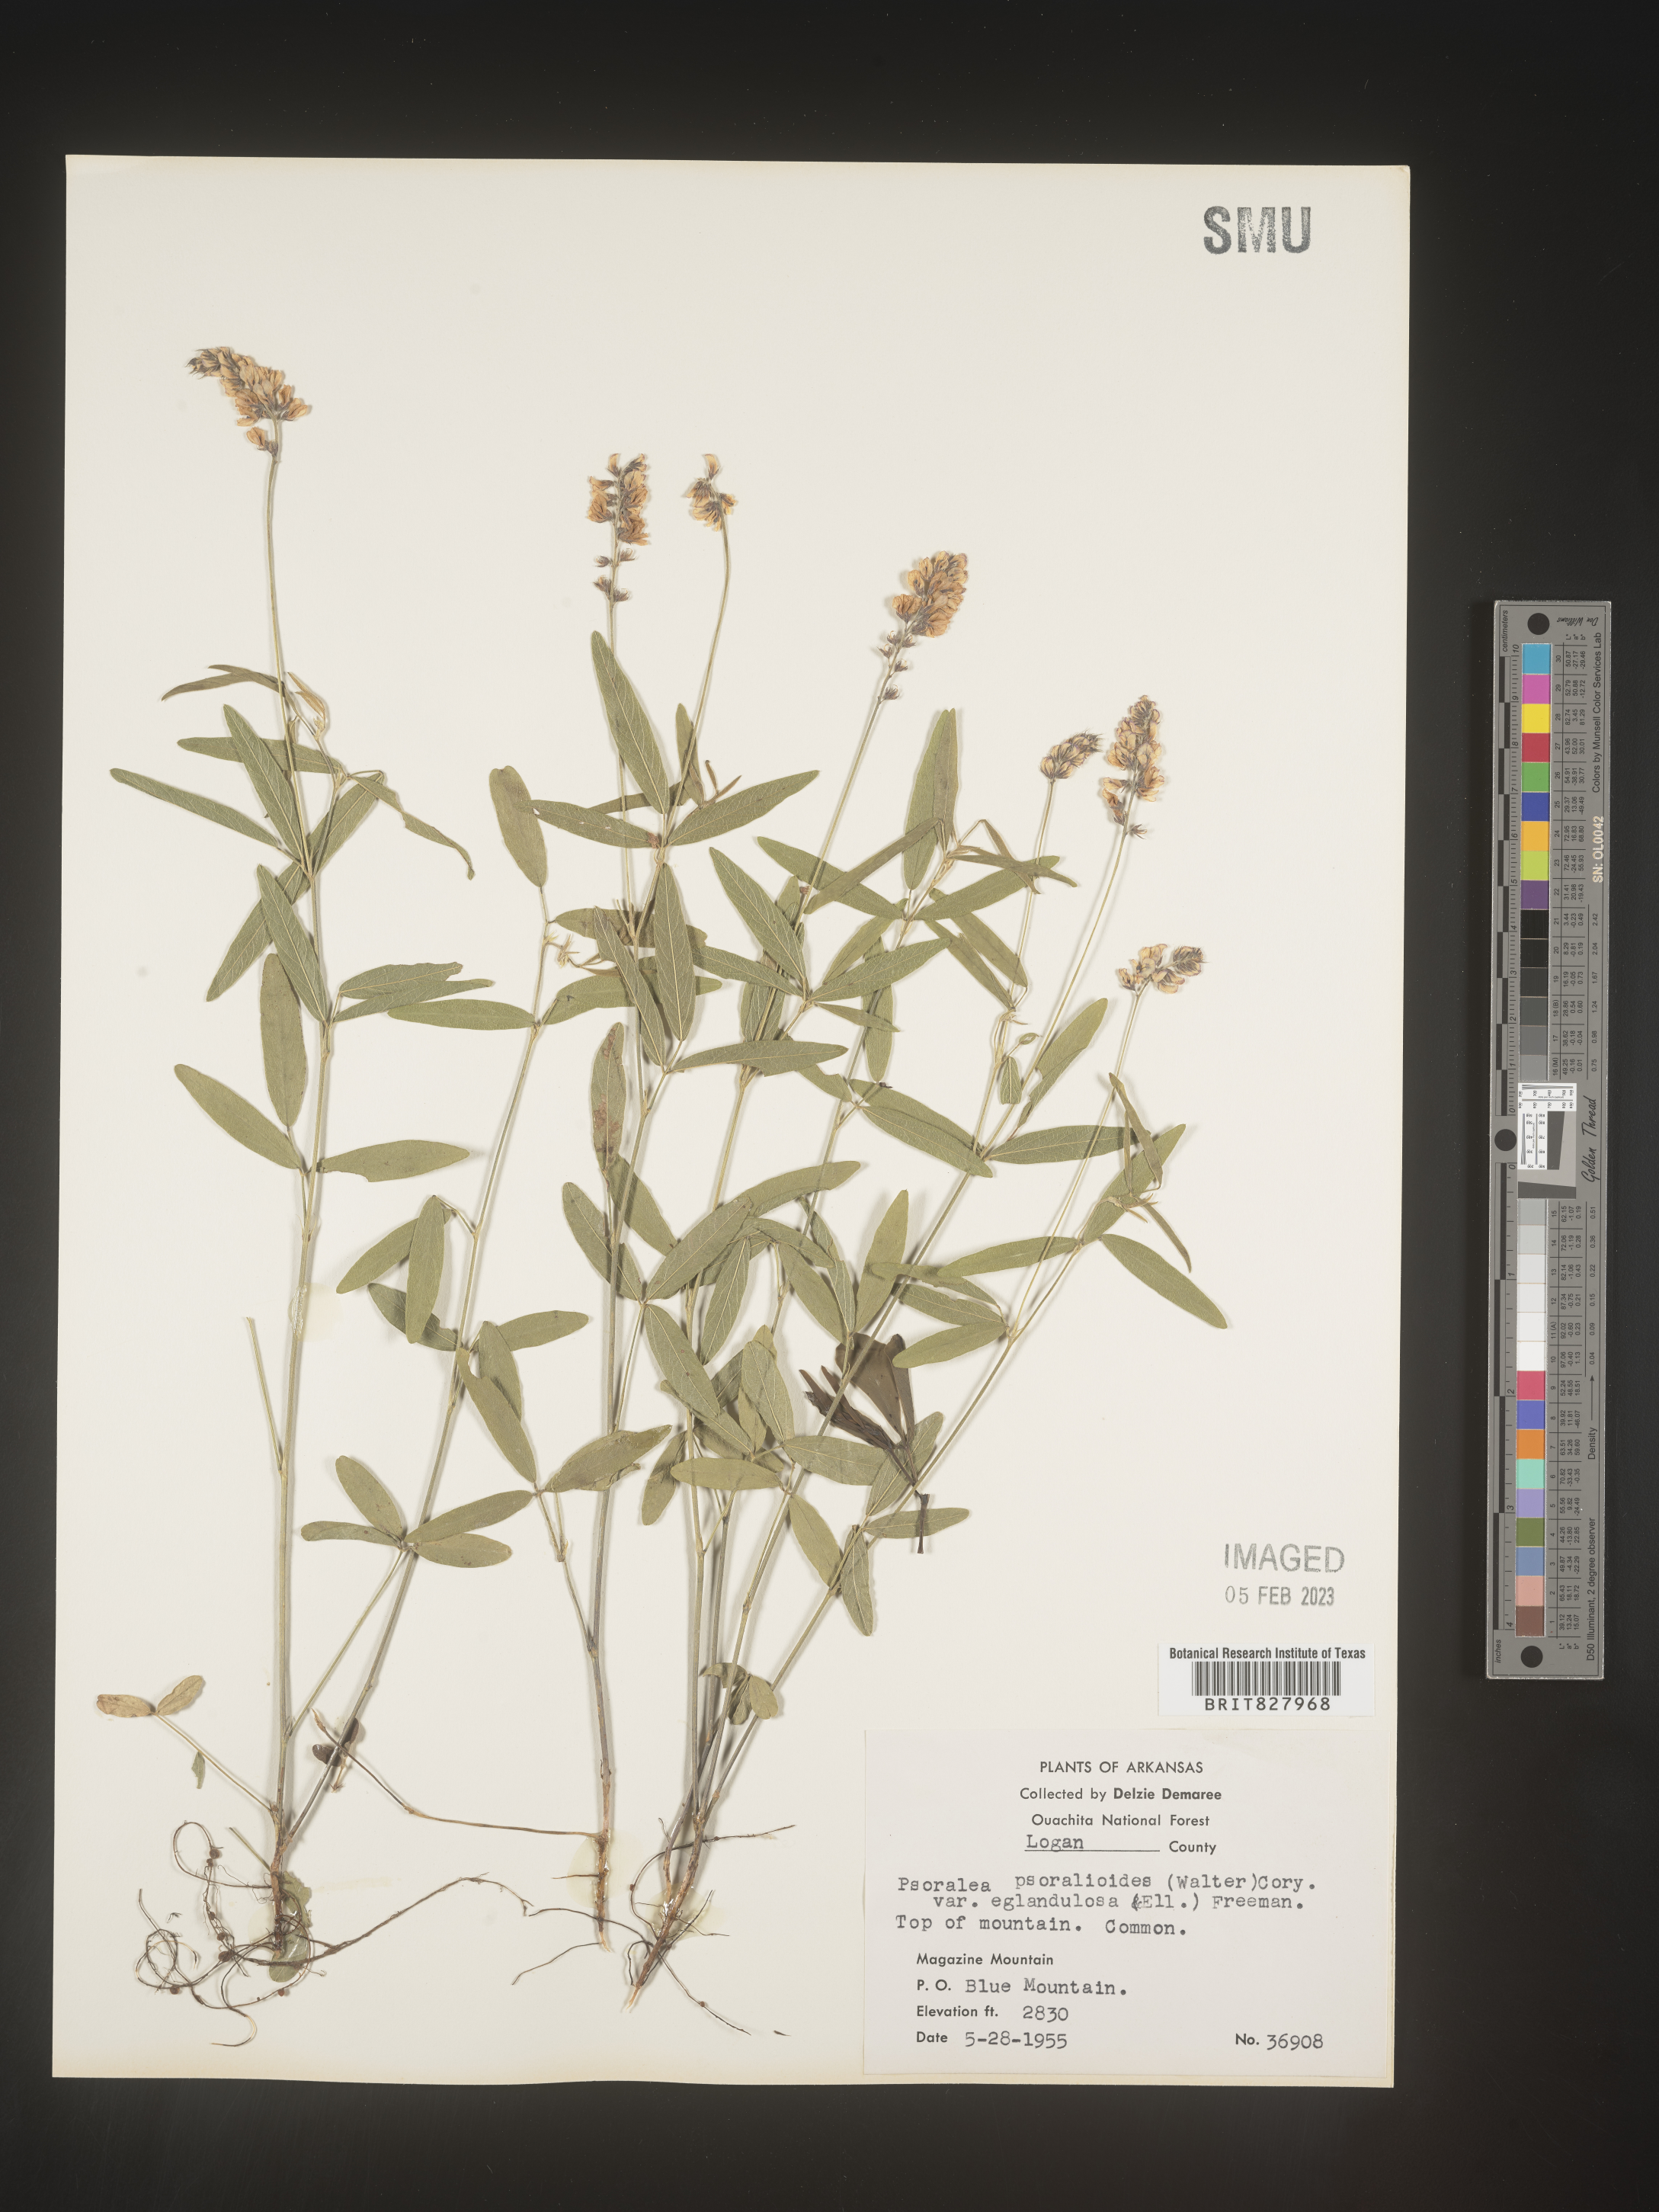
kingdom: Plantae
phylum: Tracheophyta
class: Magnoliopsida
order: Fabales
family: Fabaceae
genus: Orbexilum
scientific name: Orbexilum pedunculatum
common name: Sampson's snakeroot
